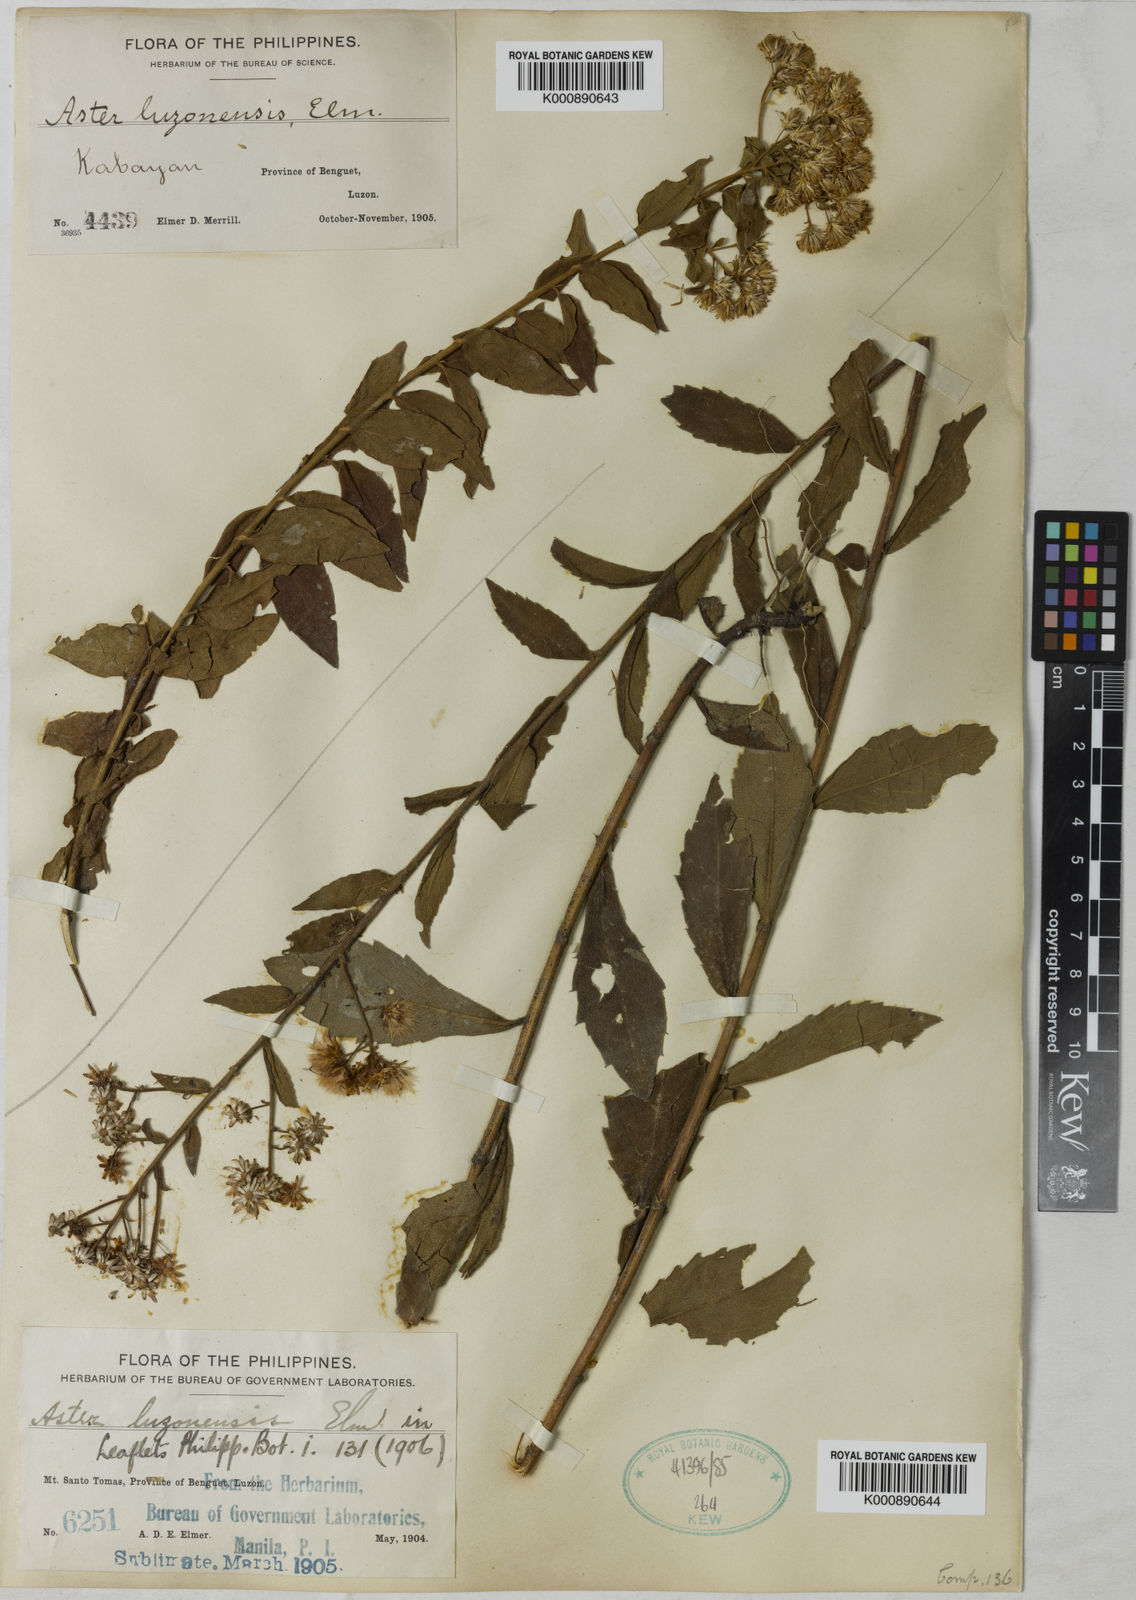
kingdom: Plantae
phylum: Tracheophyta
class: Magnoliopsida
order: Asterales
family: Asteraceae
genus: Aster
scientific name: Aster luzonensis
